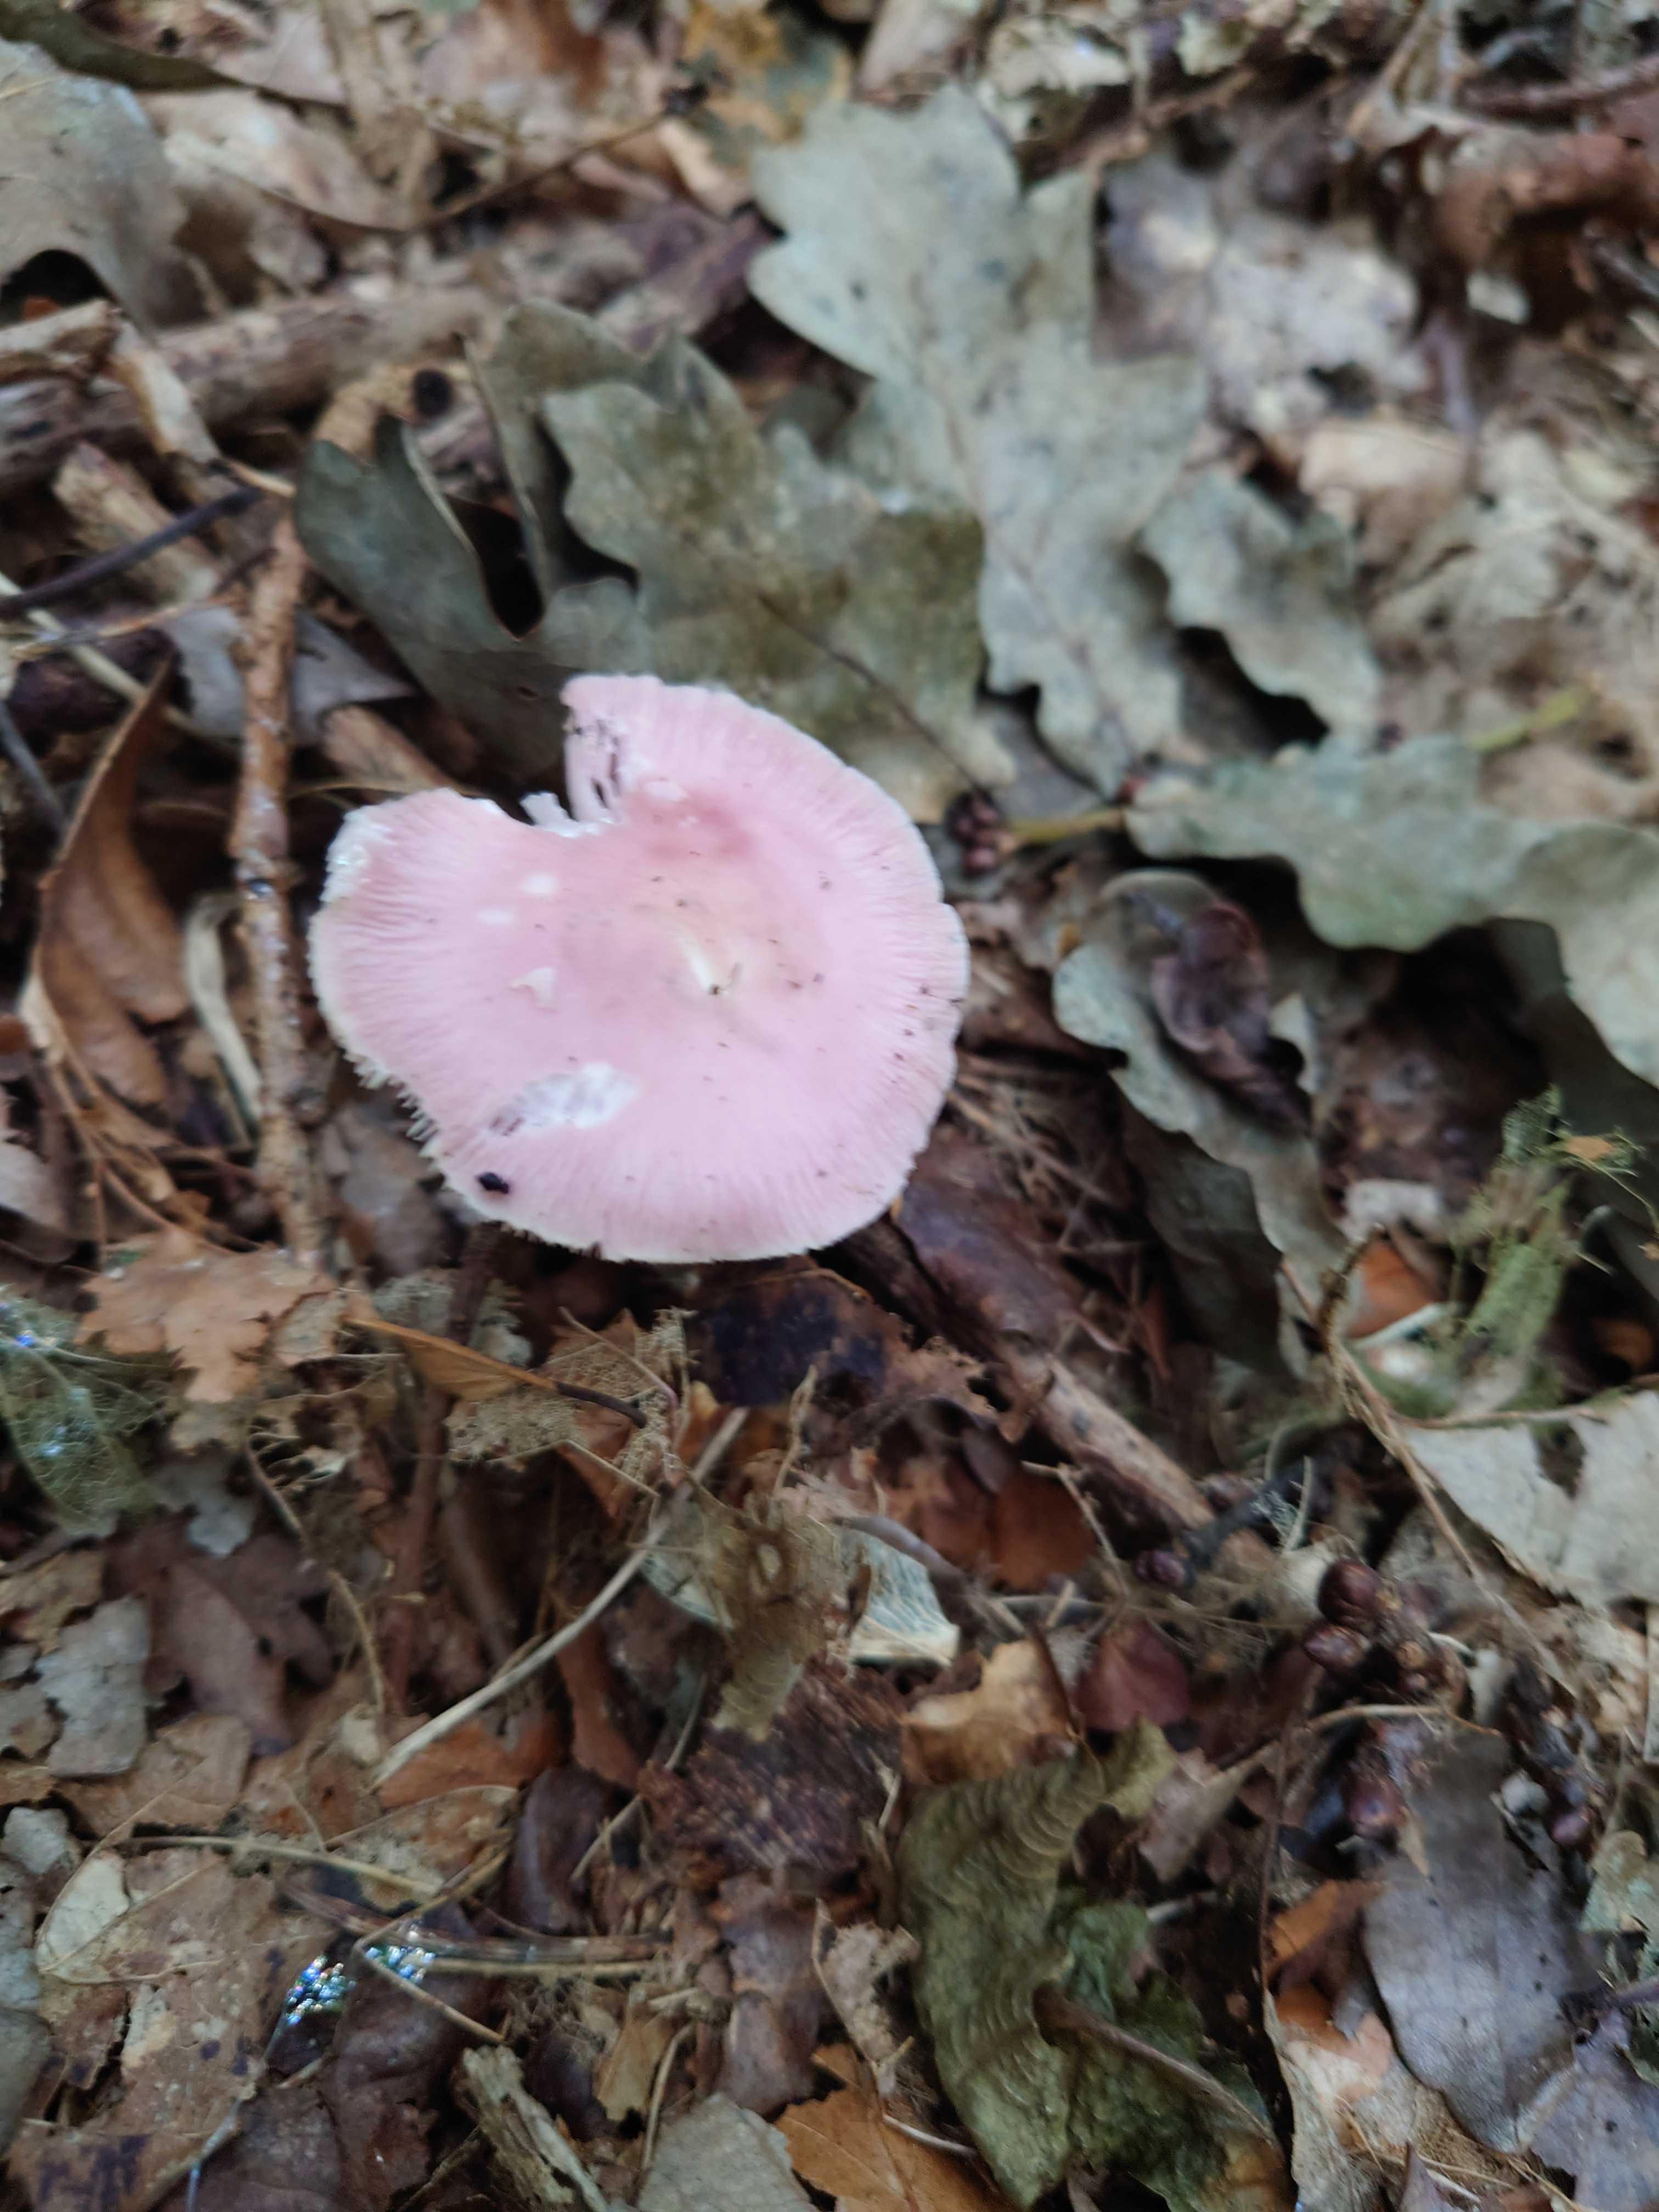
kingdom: Fungi
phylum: Basidiomycota
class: Agaricomycetes
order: Agaricales
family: Mycenaceae
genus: Mycena
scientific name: Mycena rosea
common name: rosa huesvamp
